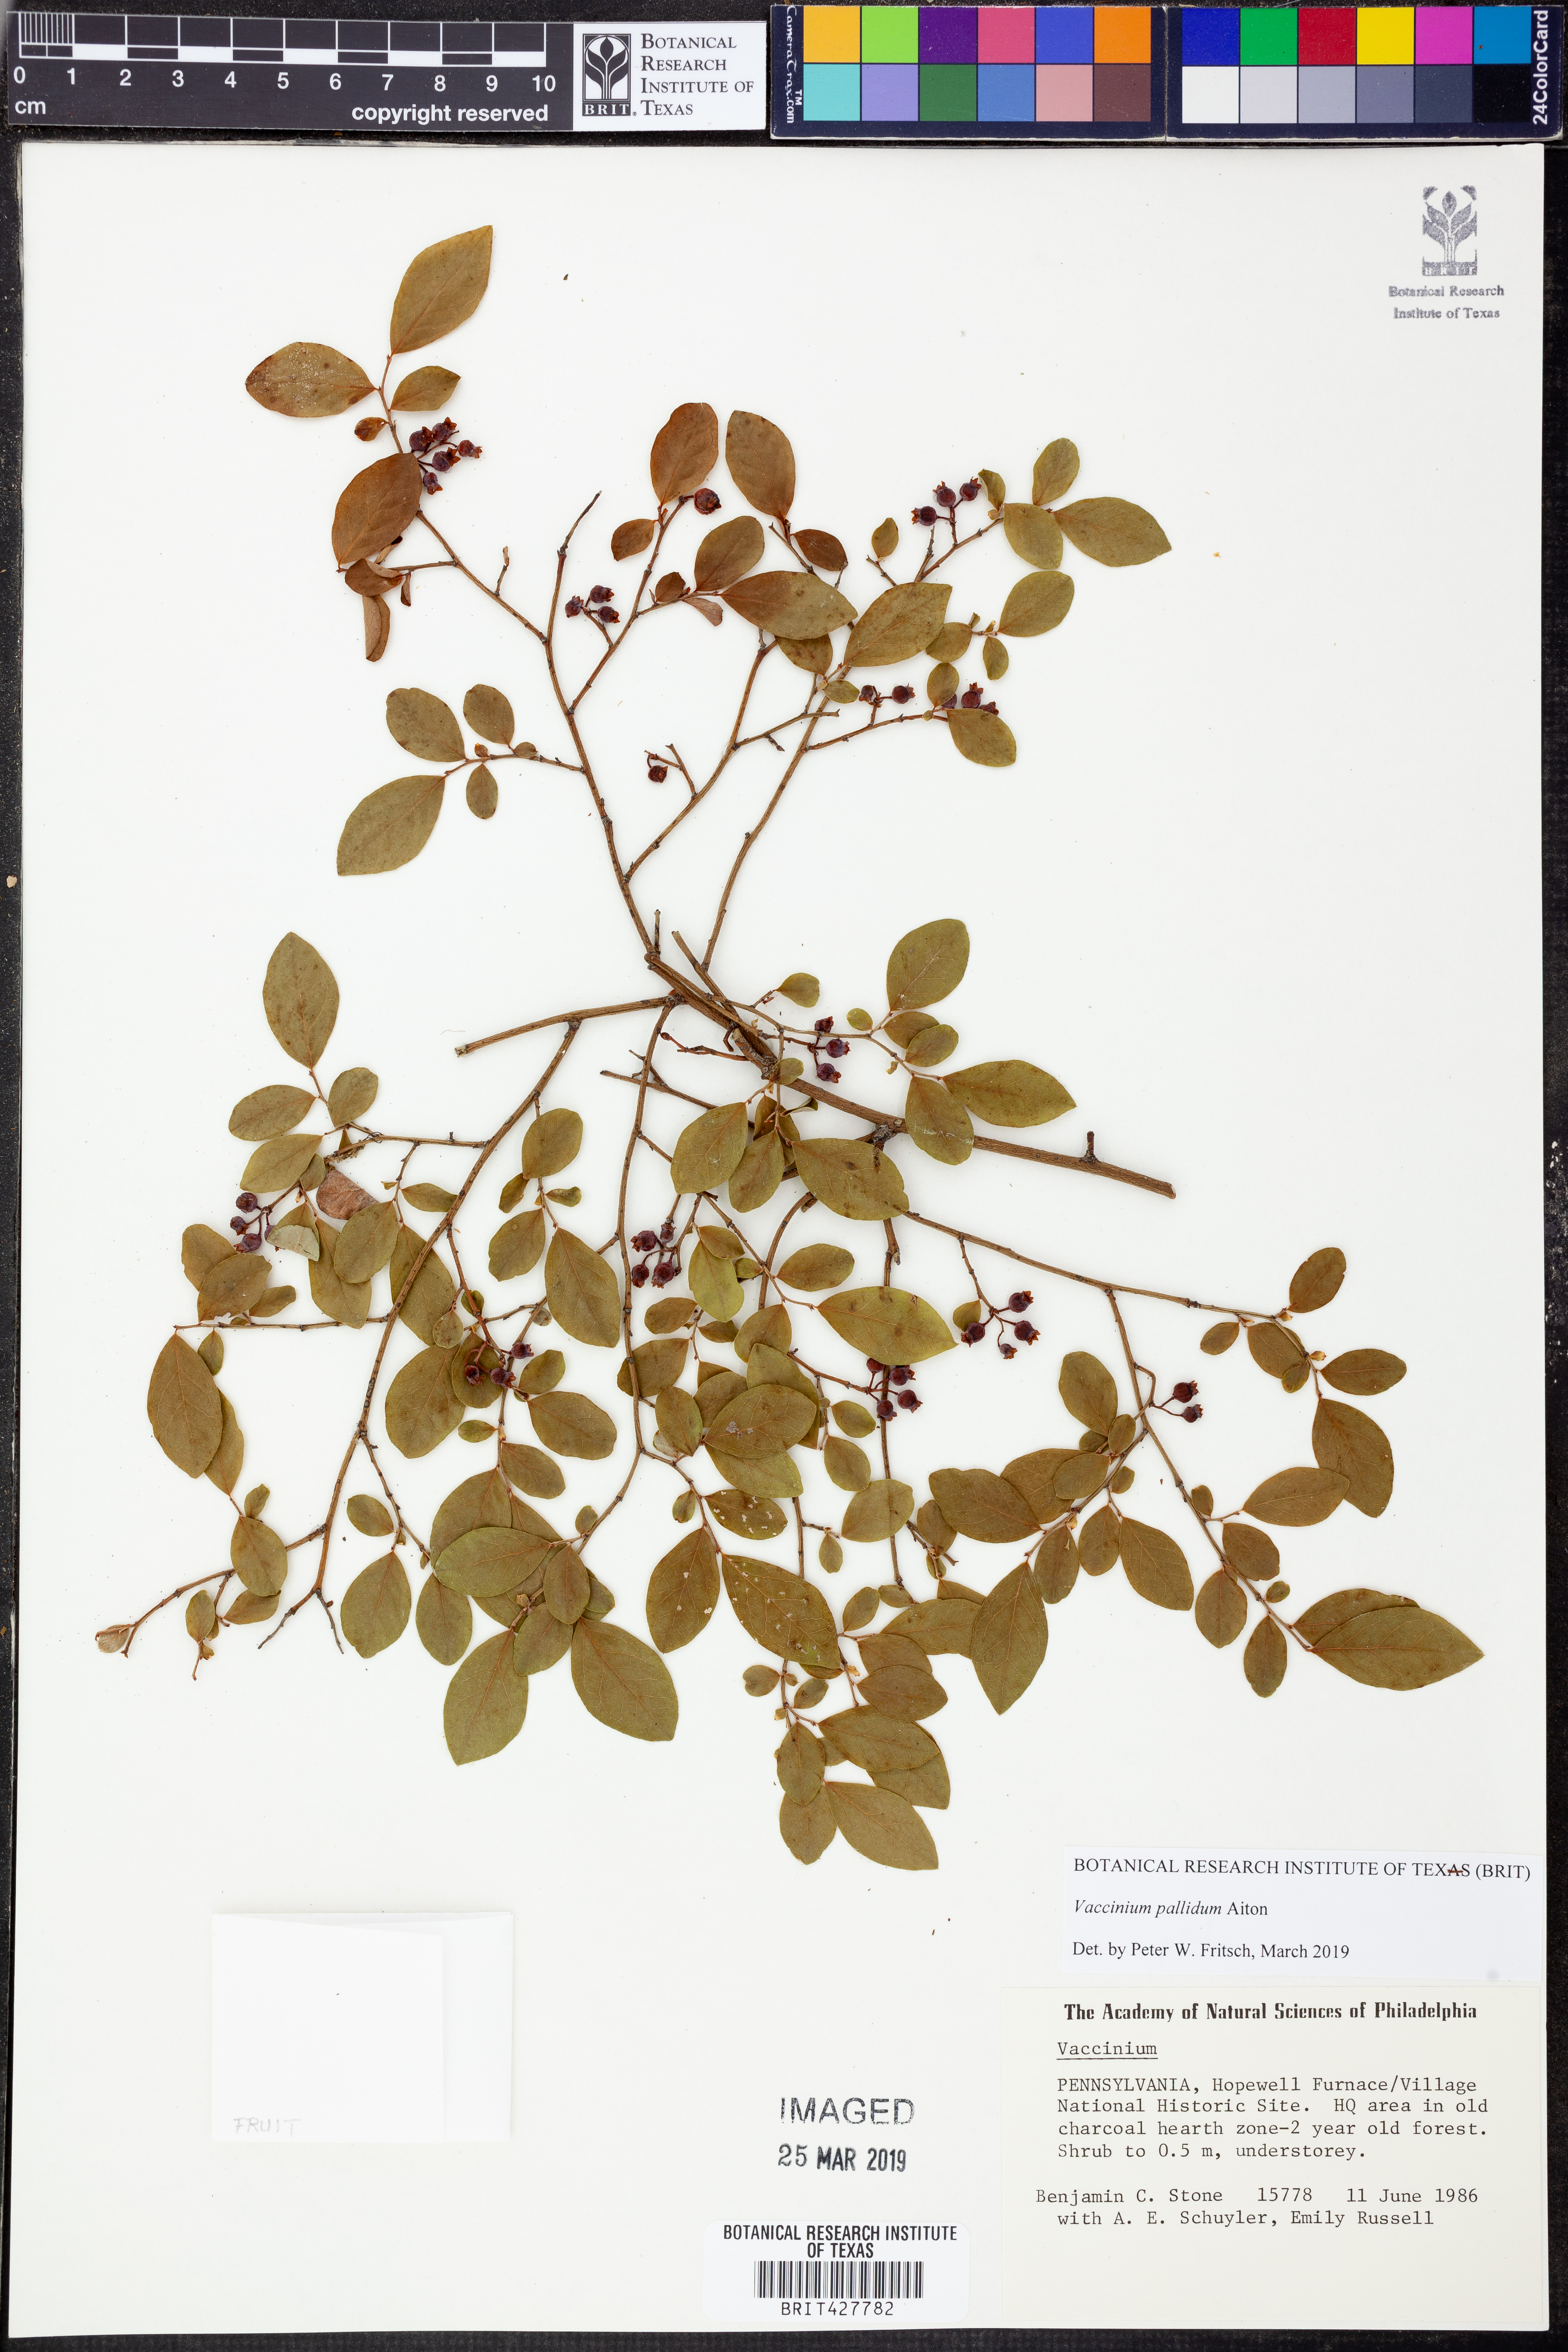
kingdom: Plantae
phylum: Tracheophyta
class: Magnoliopsida
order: Ericales
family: Ericaceae
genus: Vaccinium
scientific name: Vaccinium pallidum
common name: Blue ridge blueberry
